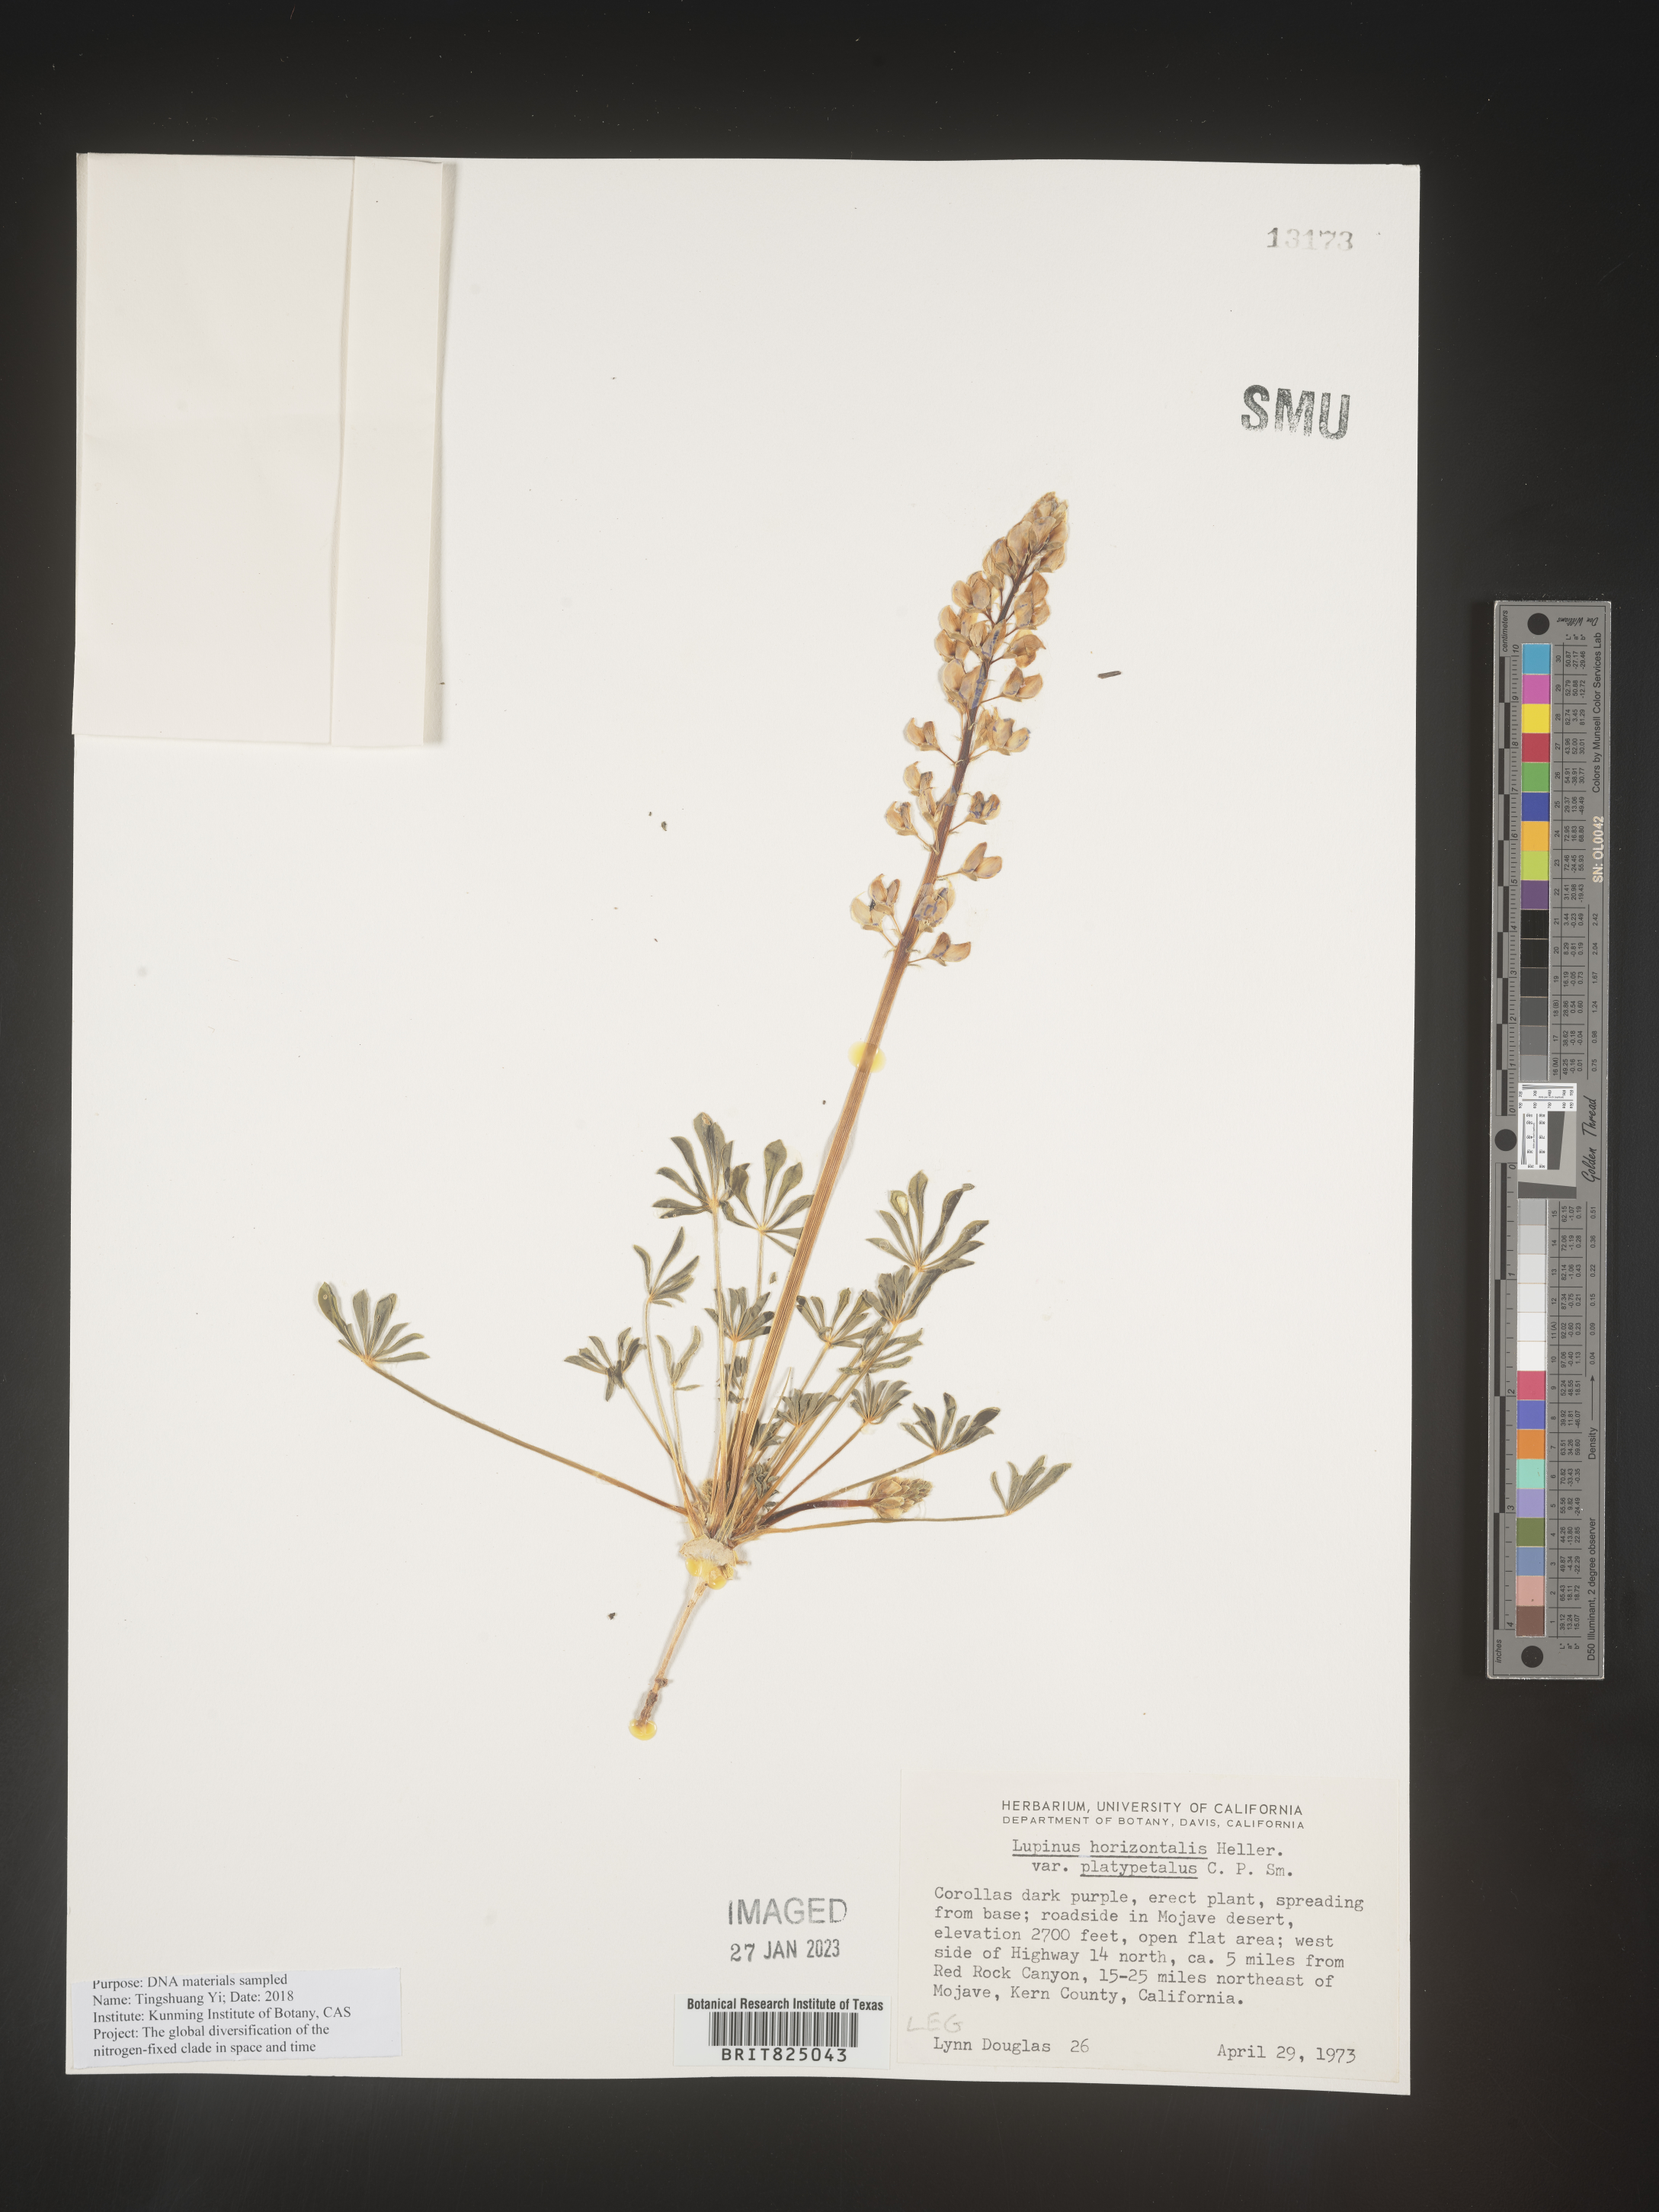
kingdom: Plantae
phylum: Tracheophyta
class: Magnoliopsida
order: Fabales
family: Fabaceae
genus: Lupinus
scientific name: Lupinus
